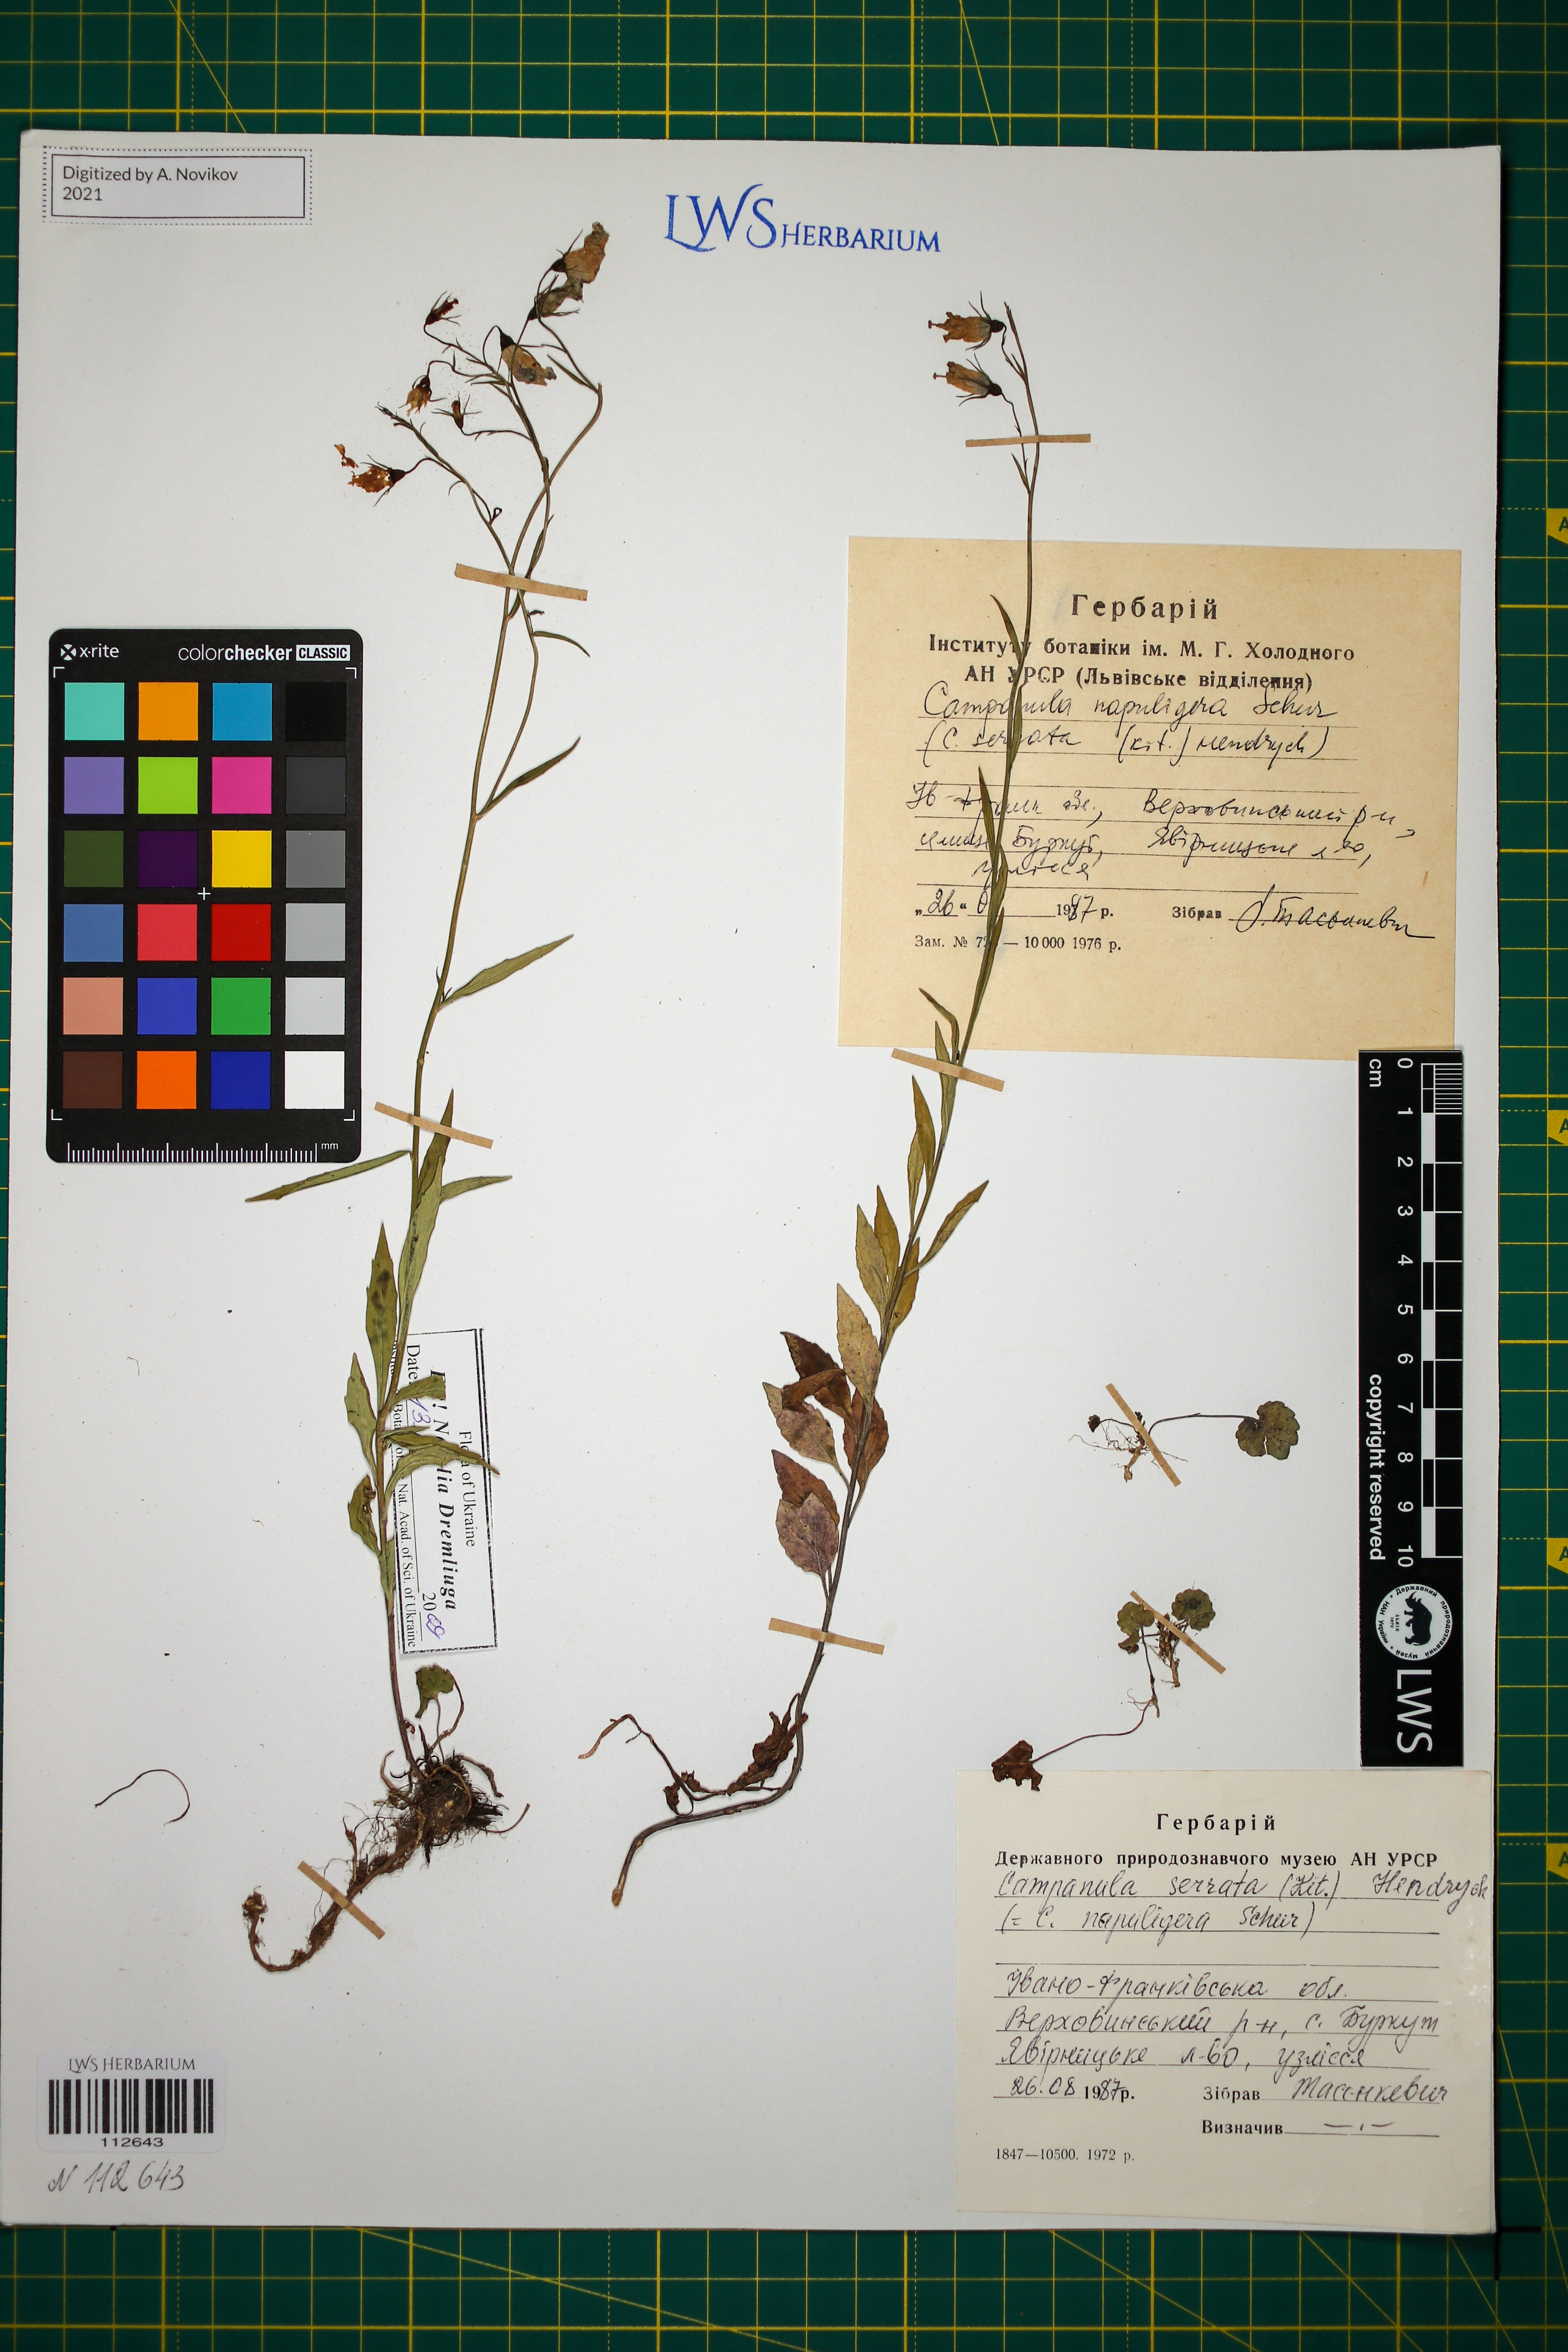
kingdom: Plantae
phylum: Tracheophyta
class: Magnoliopsida
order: Asterales
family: Campanulaceae
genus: Campanula
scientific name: Campanula serrata
